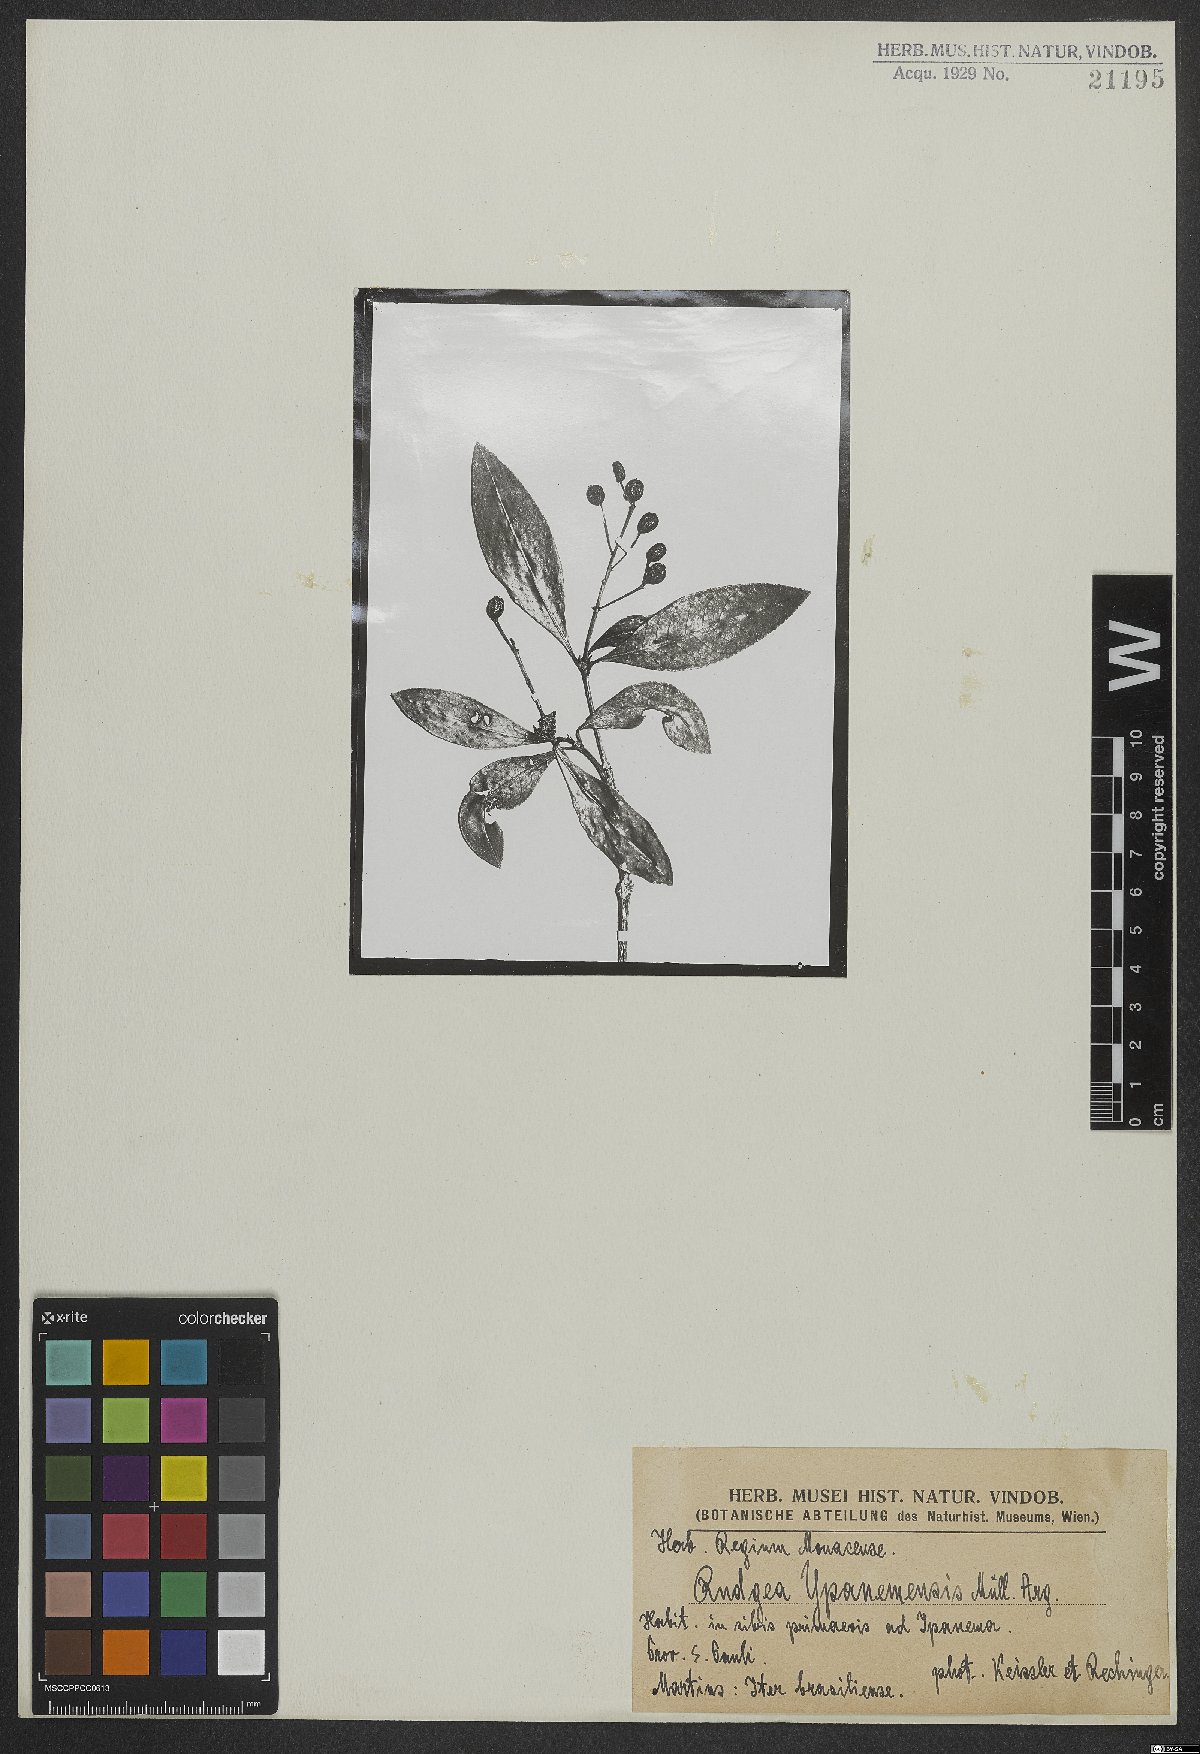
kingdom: Plantae
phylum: Tracheophyta
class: Magnoliopsida
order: Gentianales
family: Rubiaceae
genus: Rudgea
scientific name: Rudgea corymbulosa
